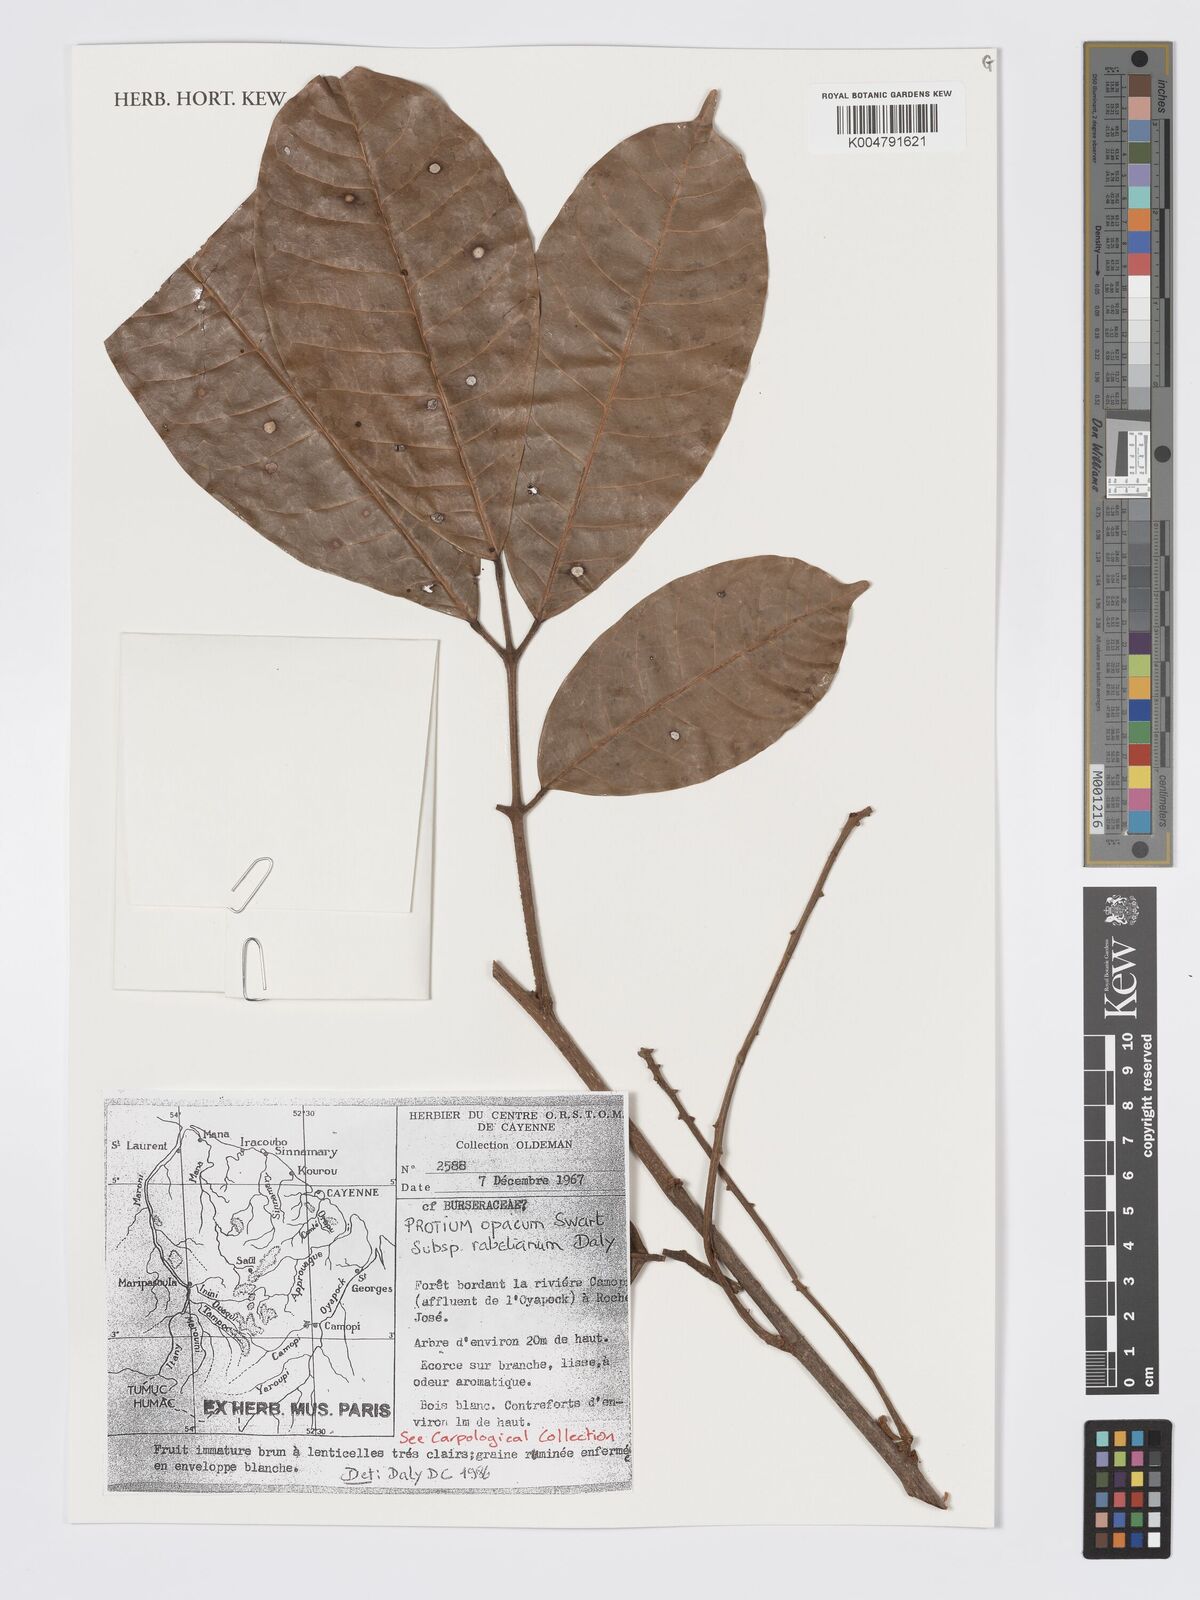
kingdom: Plantae
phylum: Tracheophyta
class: Magnoliopsida
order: Sapindales
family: Burseraceae
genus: Protium
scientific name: Protium opacum
